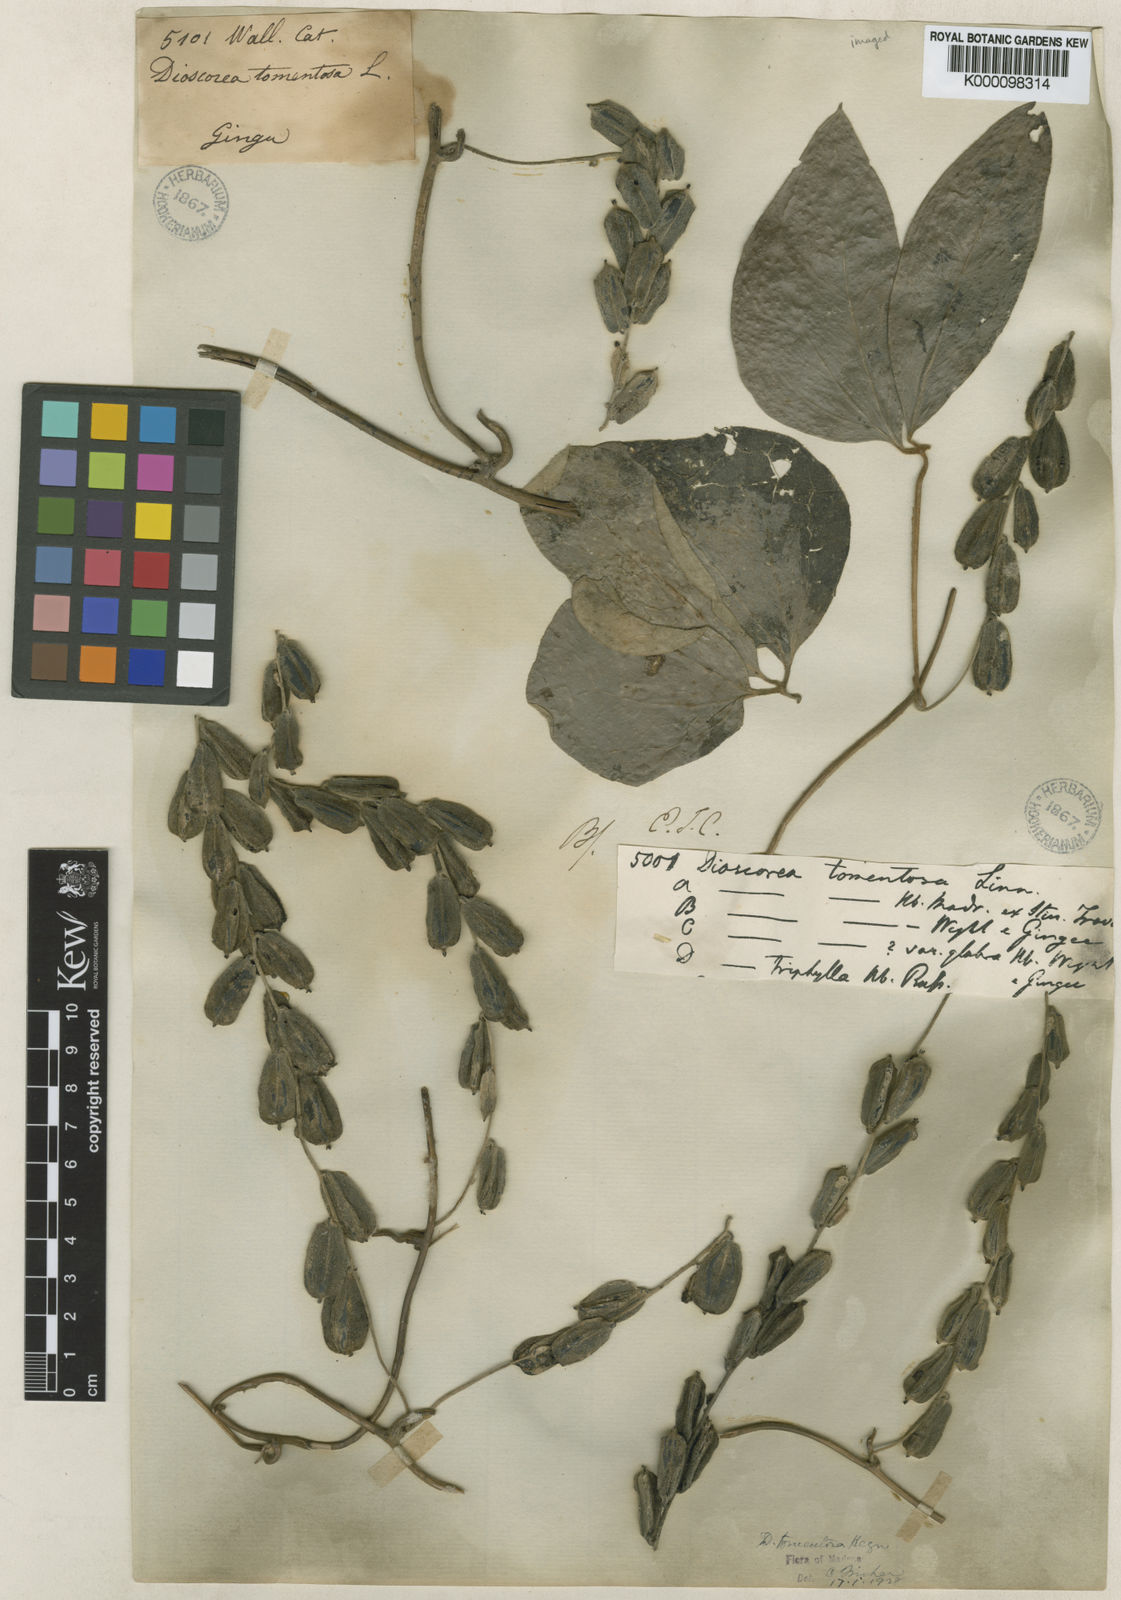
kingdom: Plantae
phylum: Tracheophyta
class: Liliopsida
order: Dioscoreales
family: Dioscoreaceae
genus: Dioscorea
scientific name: Dioscorea
